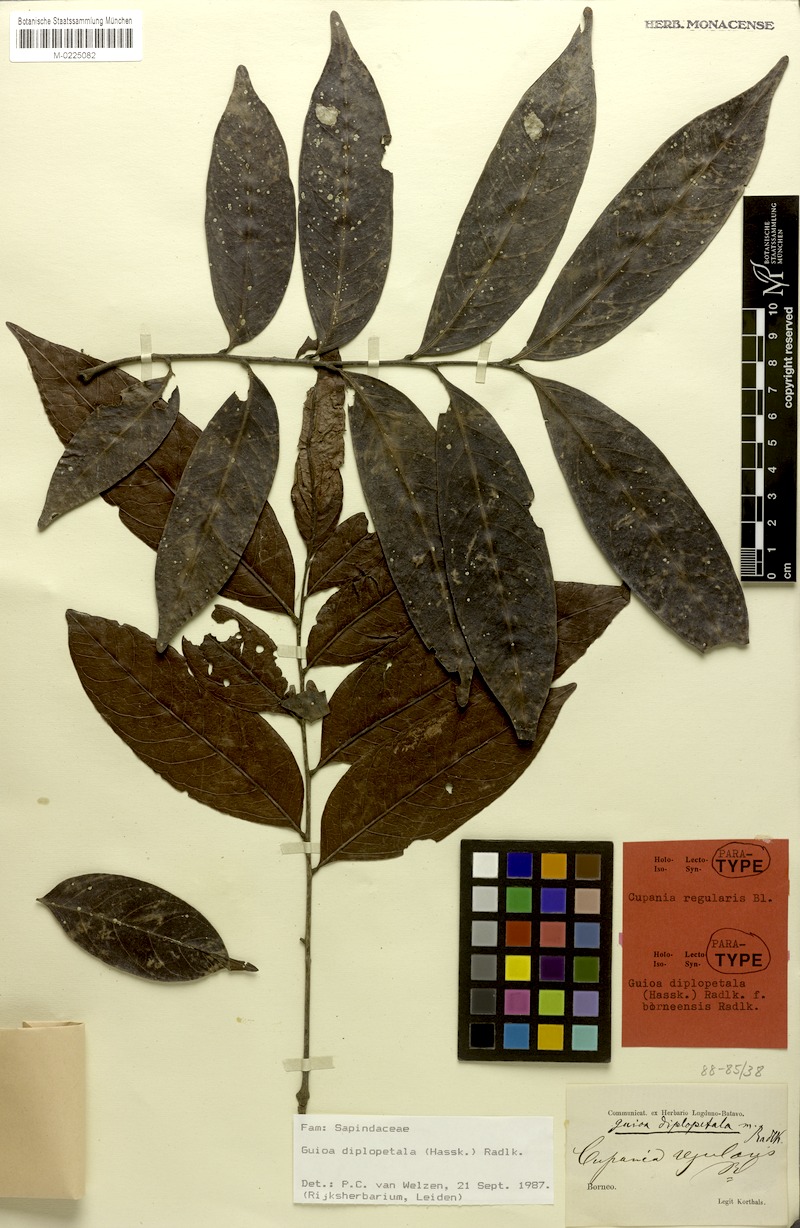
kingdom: Plantae
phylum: Tracheophyta
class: Magnoliopsida
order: Sapindales
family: Sapindaceae
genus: Guioa
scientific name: Guioa diplopetala
